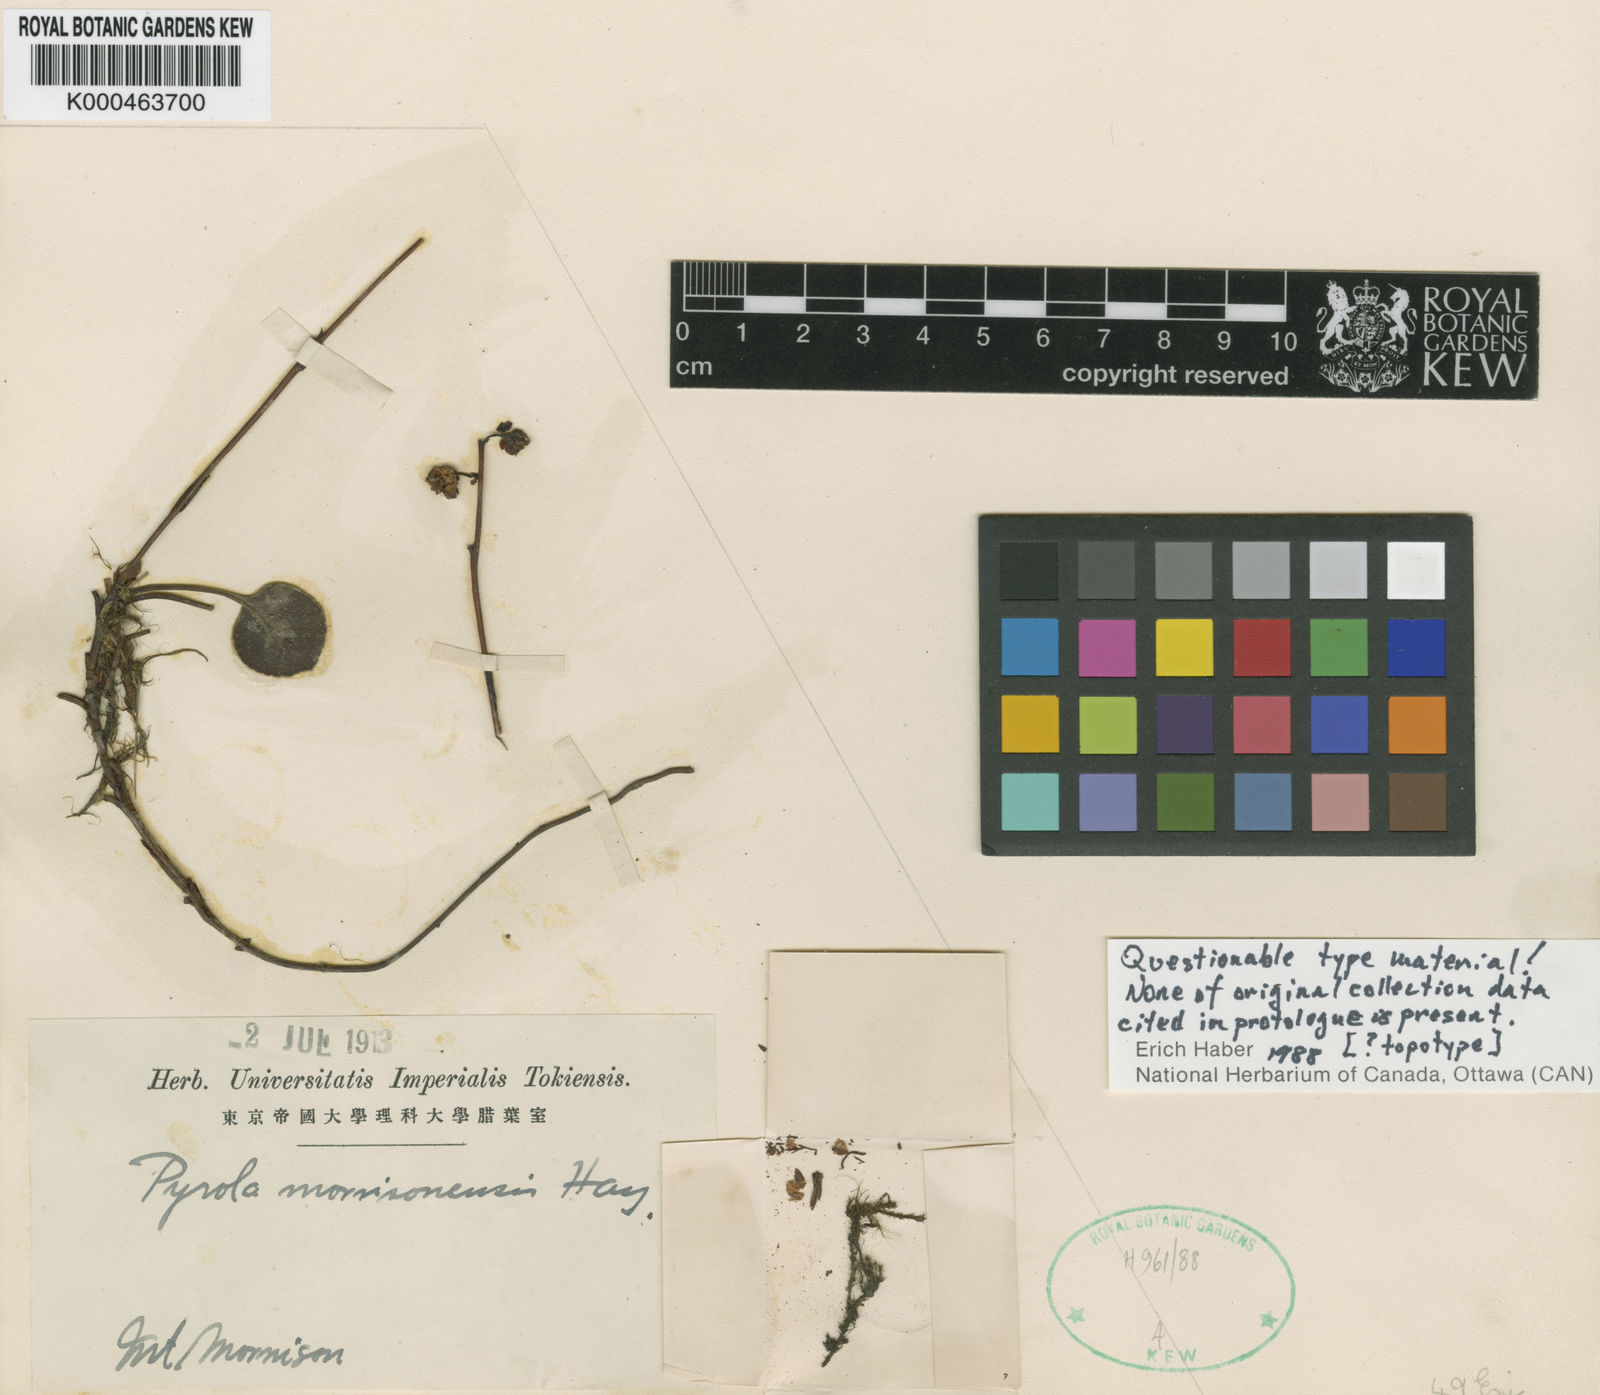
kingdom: Plantae
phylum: Tracheophyta
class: Magnoliopsida
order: Ericales
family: Ericaceae
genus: Pyrola
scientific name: Pyrola morrisonensis
